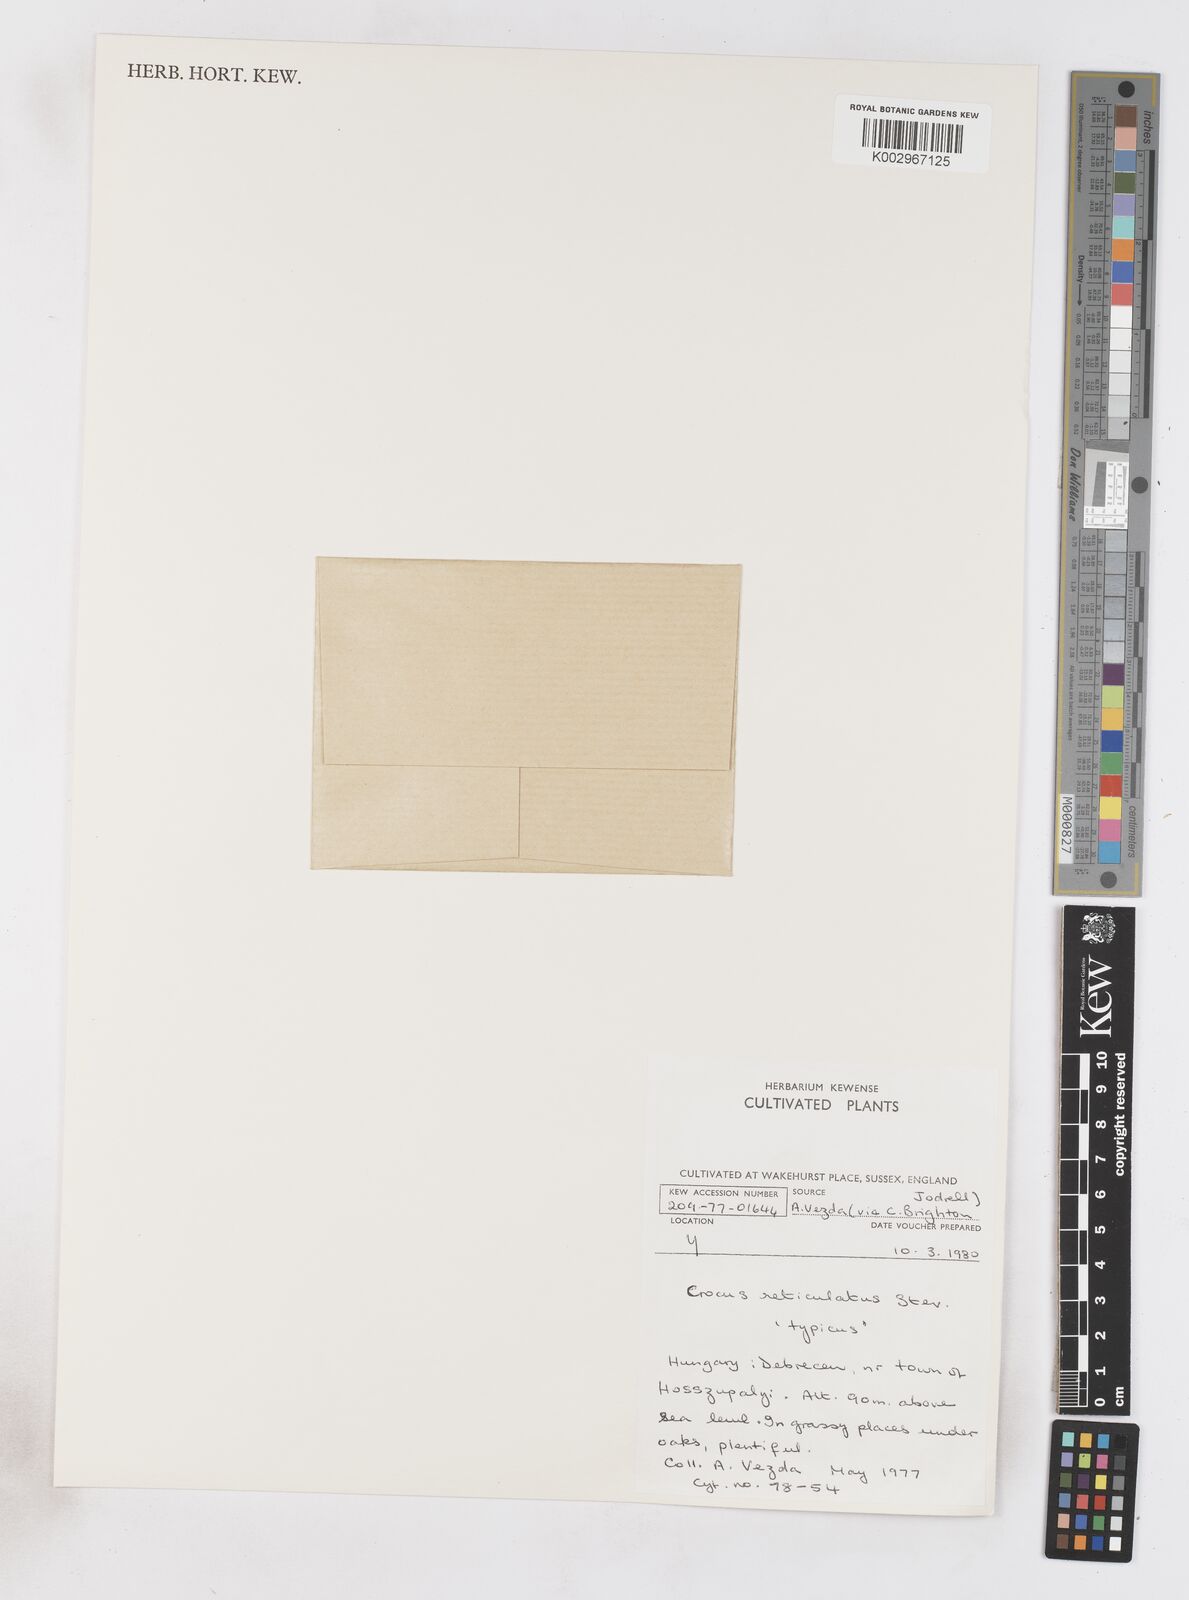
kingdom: Plantae
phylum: Tracheophyta
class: Liliopsida
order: Asparagales
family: Iridaceae
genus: Crocus
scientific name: Crocus reticulatus
